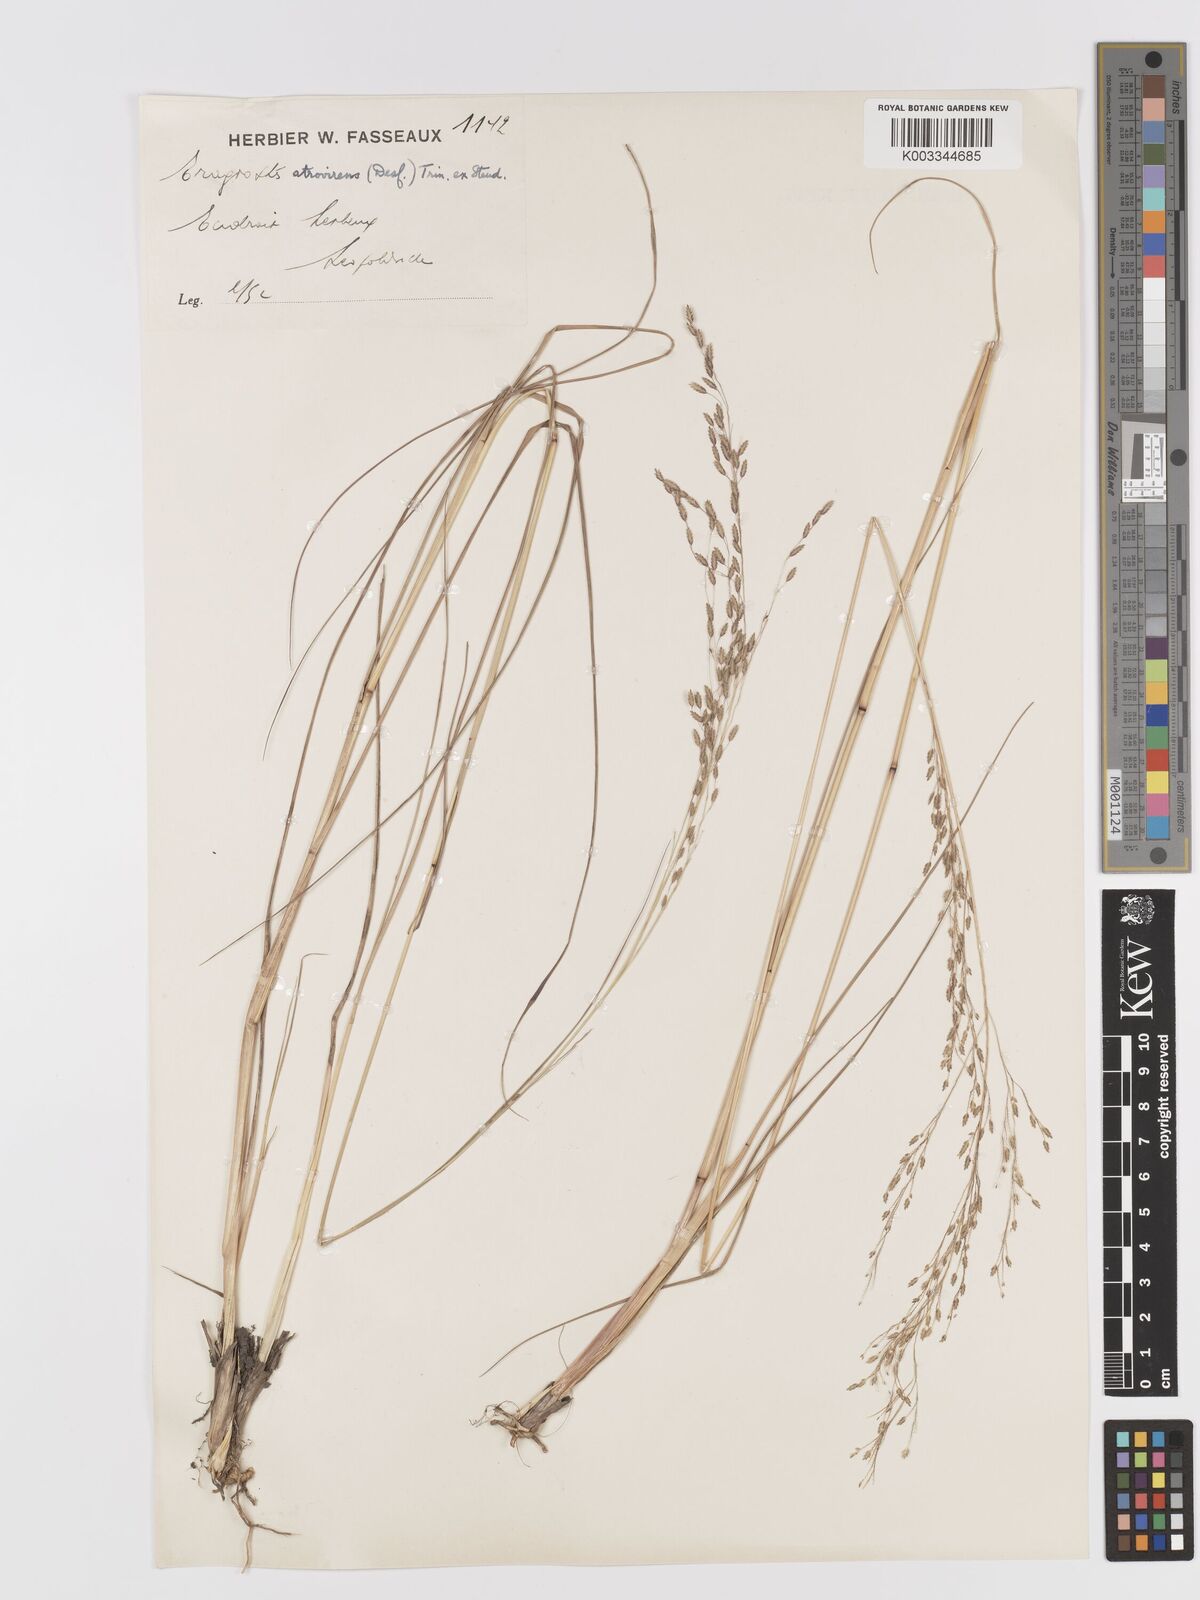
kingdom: Plantae
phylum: Tracheophyta
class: Liliopsida
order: Poales
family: Poaceae
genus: Eragrostis
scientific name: Eragrostis atrovirens
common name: Thalia lovegrass
